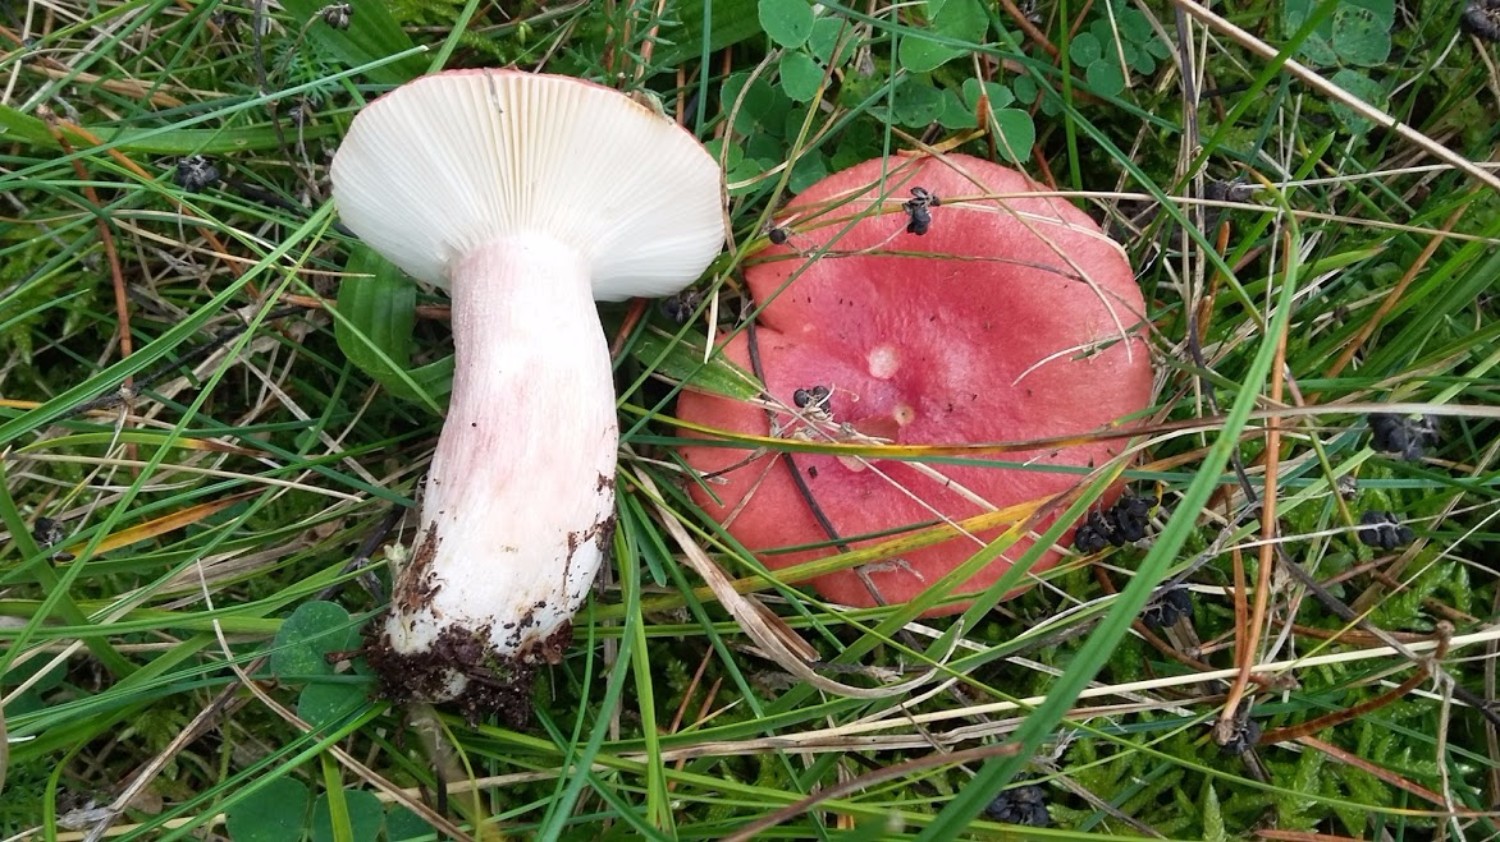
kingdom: Fungi
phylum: Basidiomycota
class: Agaricomycetes
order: Russulales
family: Russulaceae
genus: Russula
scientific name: Russula xerampelina
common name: hummer-skørhat
